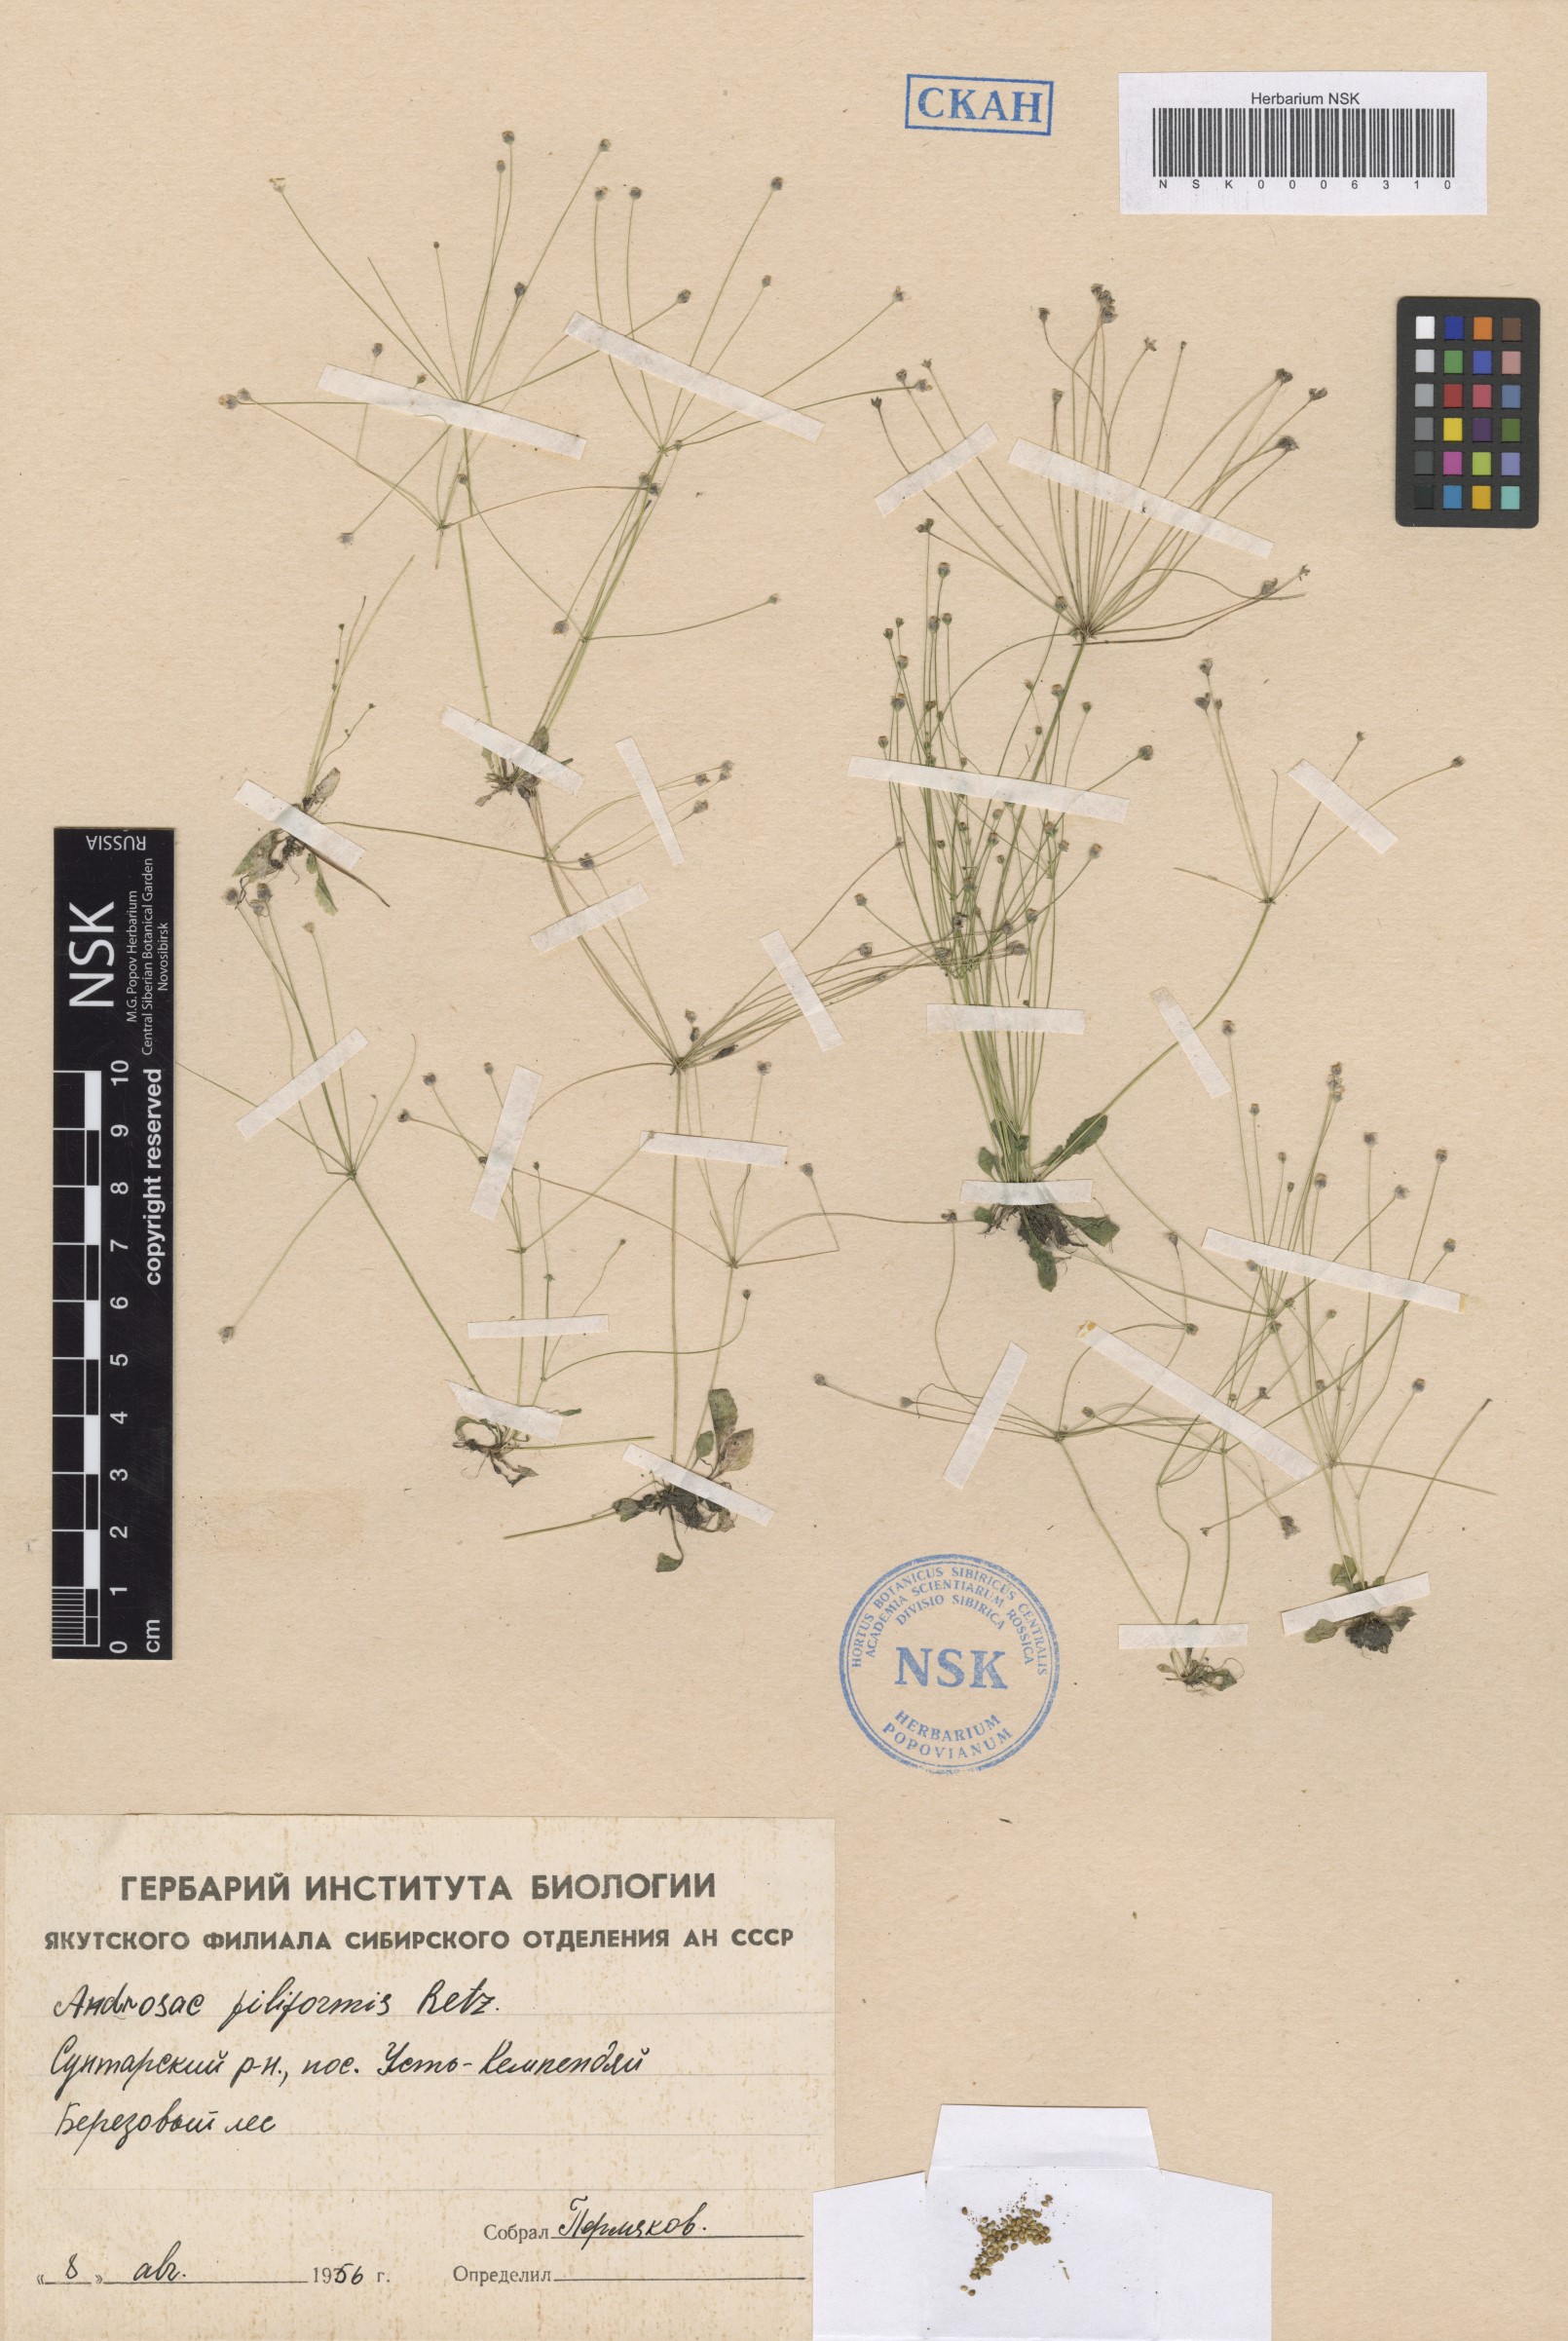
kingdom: Plantae
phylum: Tracheophyta
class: Magnoliopsida
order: Ericales
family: Primulaceae
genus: Androsace
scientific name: Androsace filiformis
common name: Filiform rock jasmine
